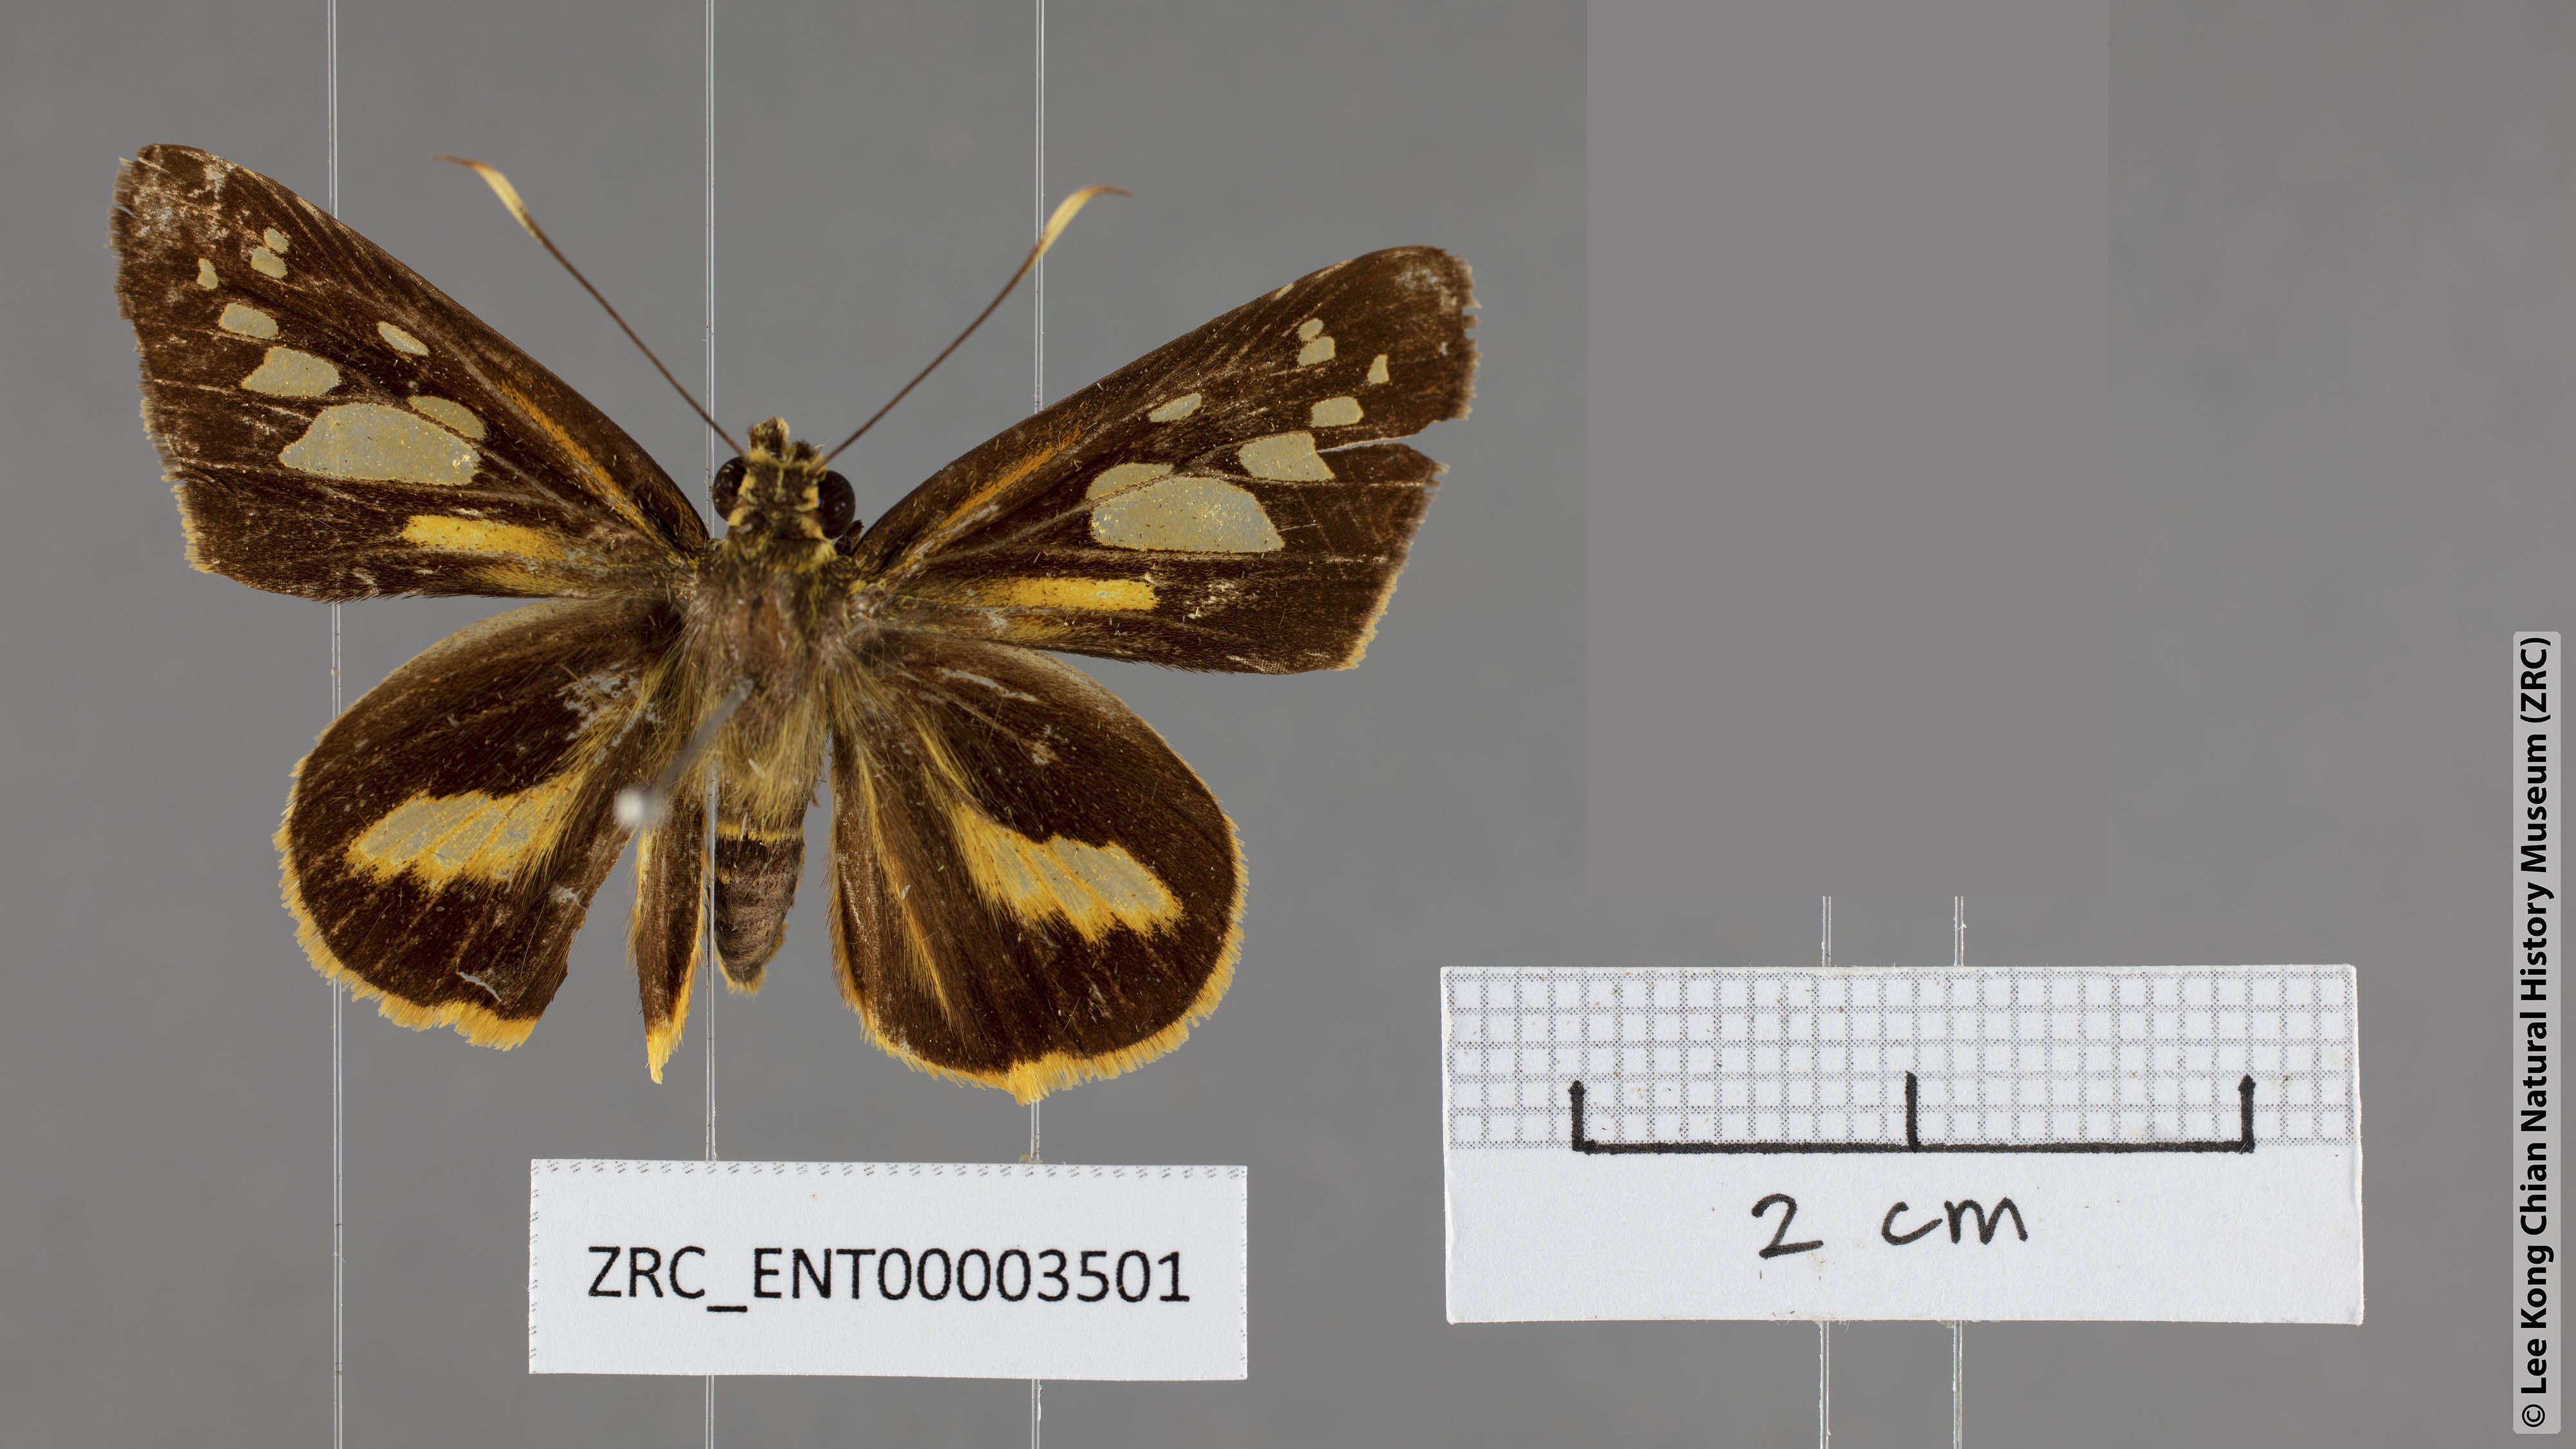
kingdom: Animalia
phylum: Arthropoda
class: Insecta
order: Lepidoptera
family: Hesperiidae
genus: Pyroneura
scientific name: Pyroneura derna
